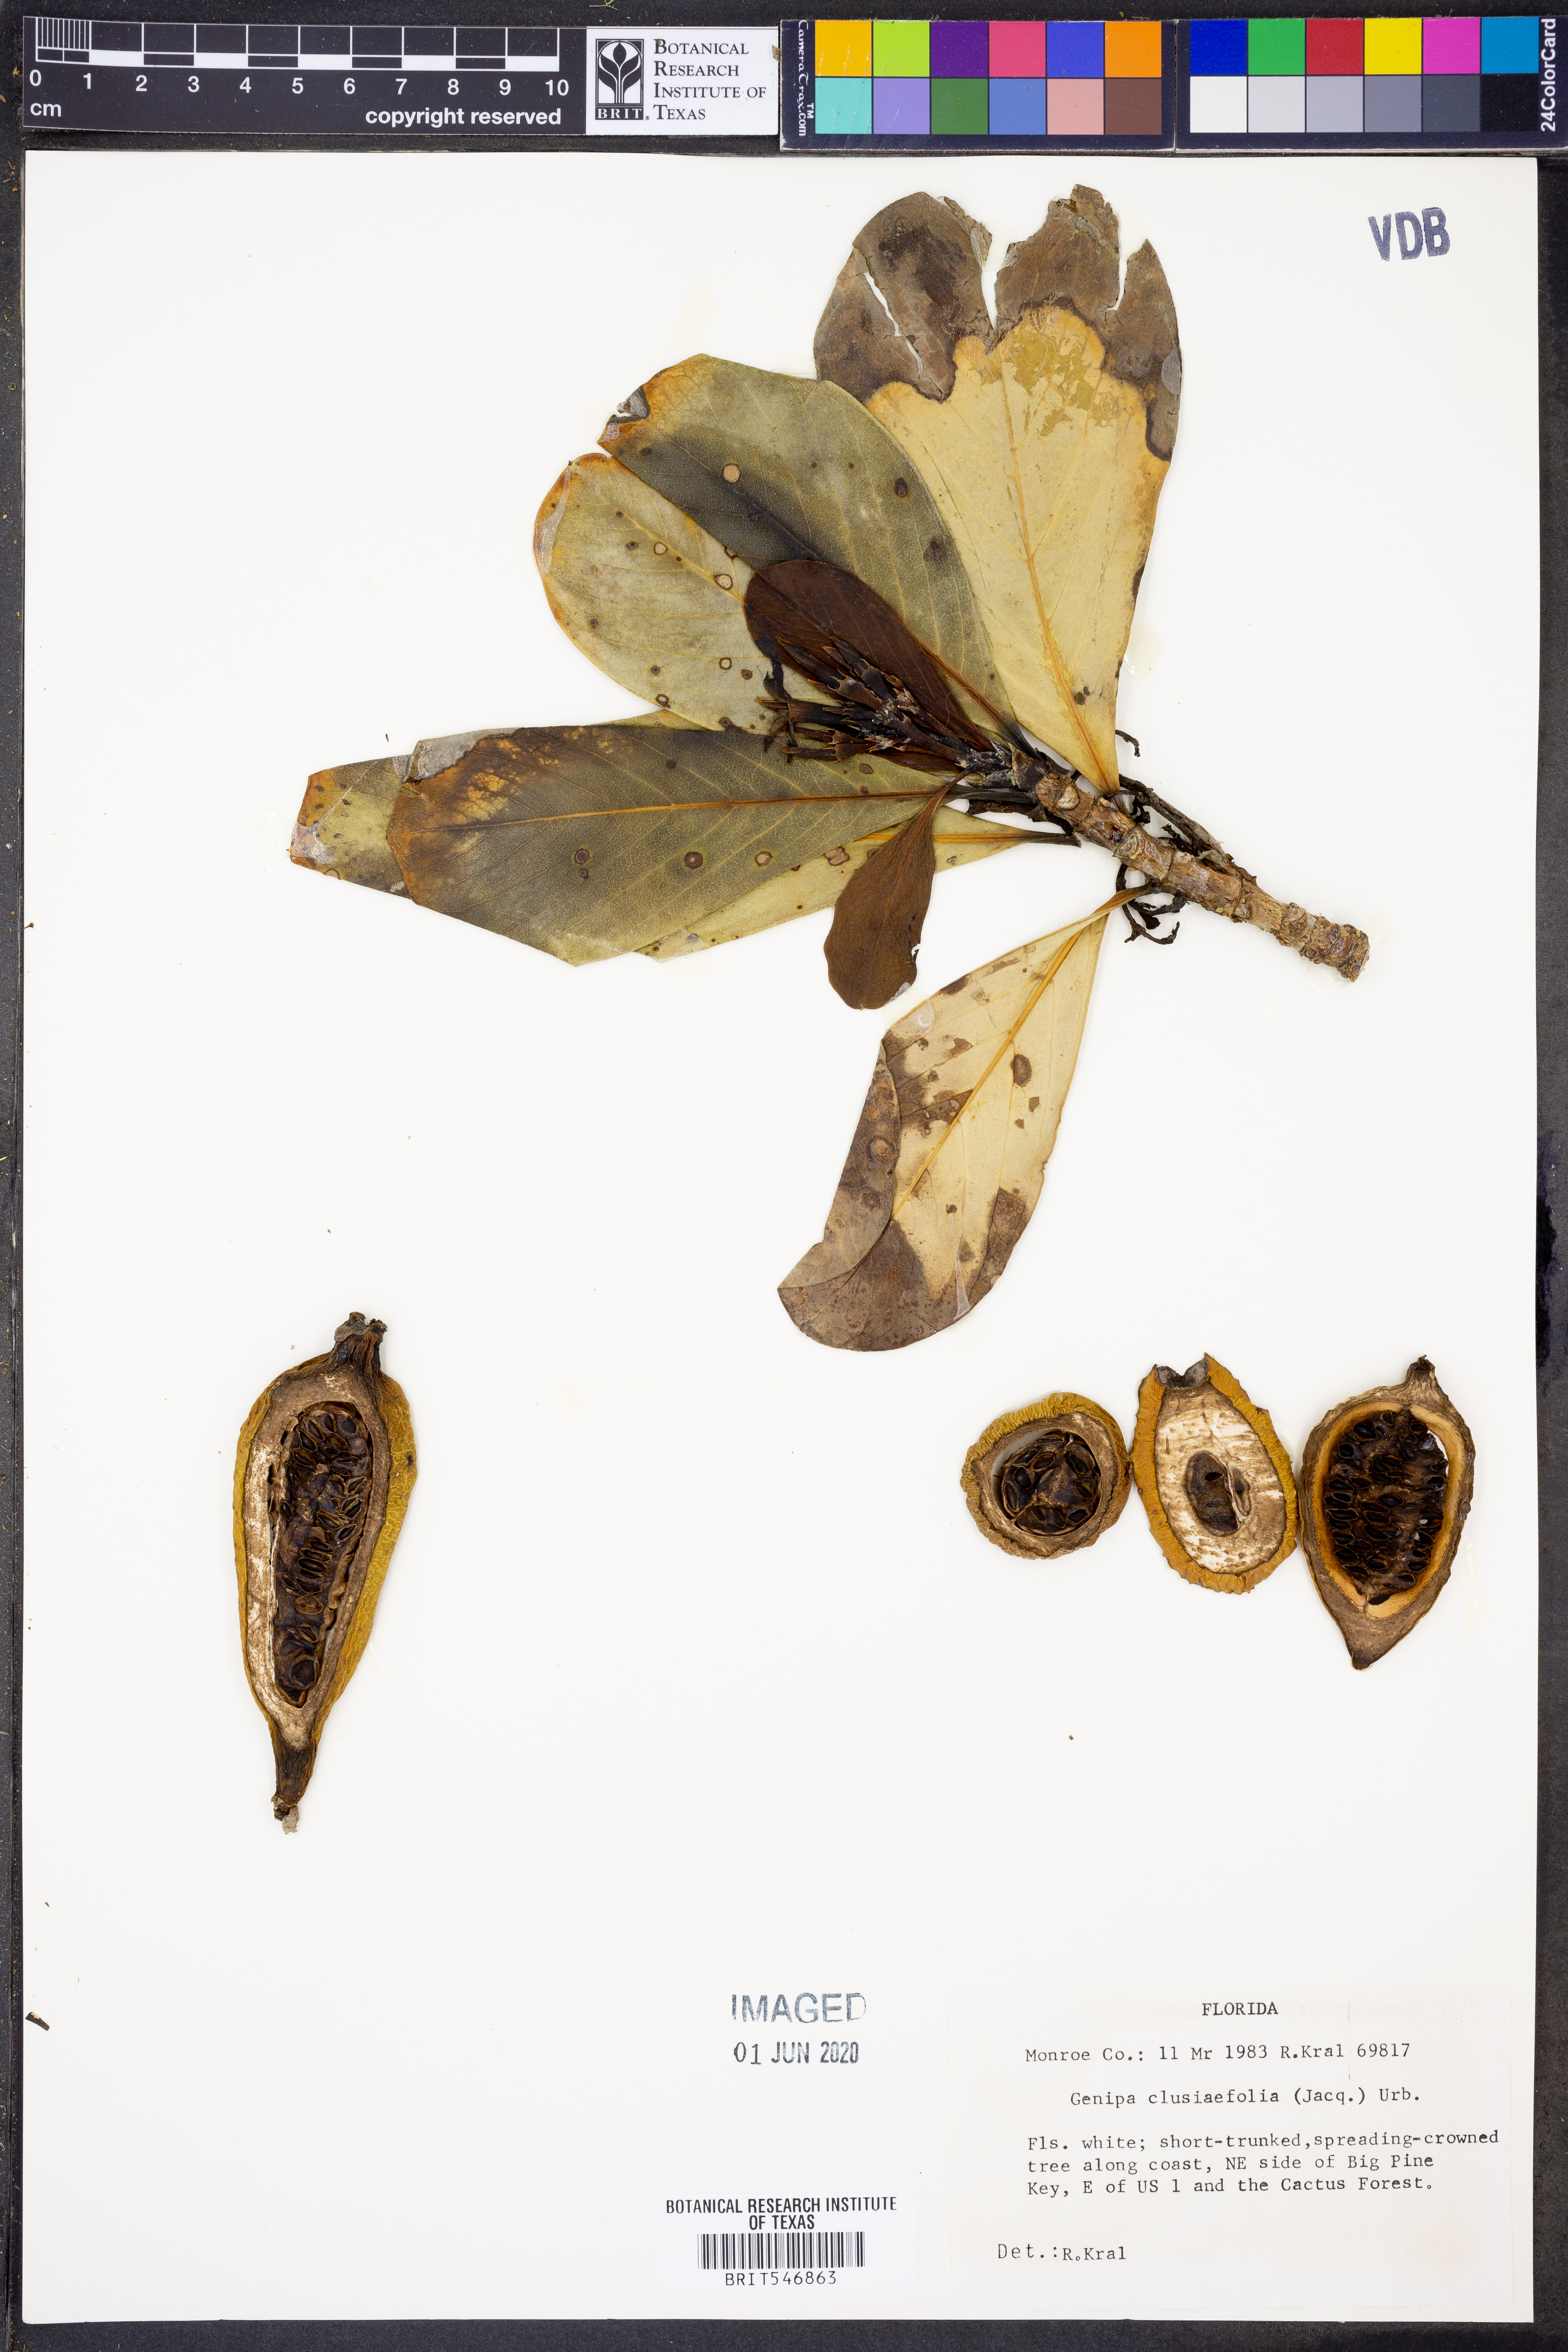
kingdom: Plantae
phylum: Tracheophyta
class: Magnoliopsida
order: Gentianales
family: Rubiaceae
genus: Casasia
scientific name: Casasia clusiifolia
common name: Seven-year apple
